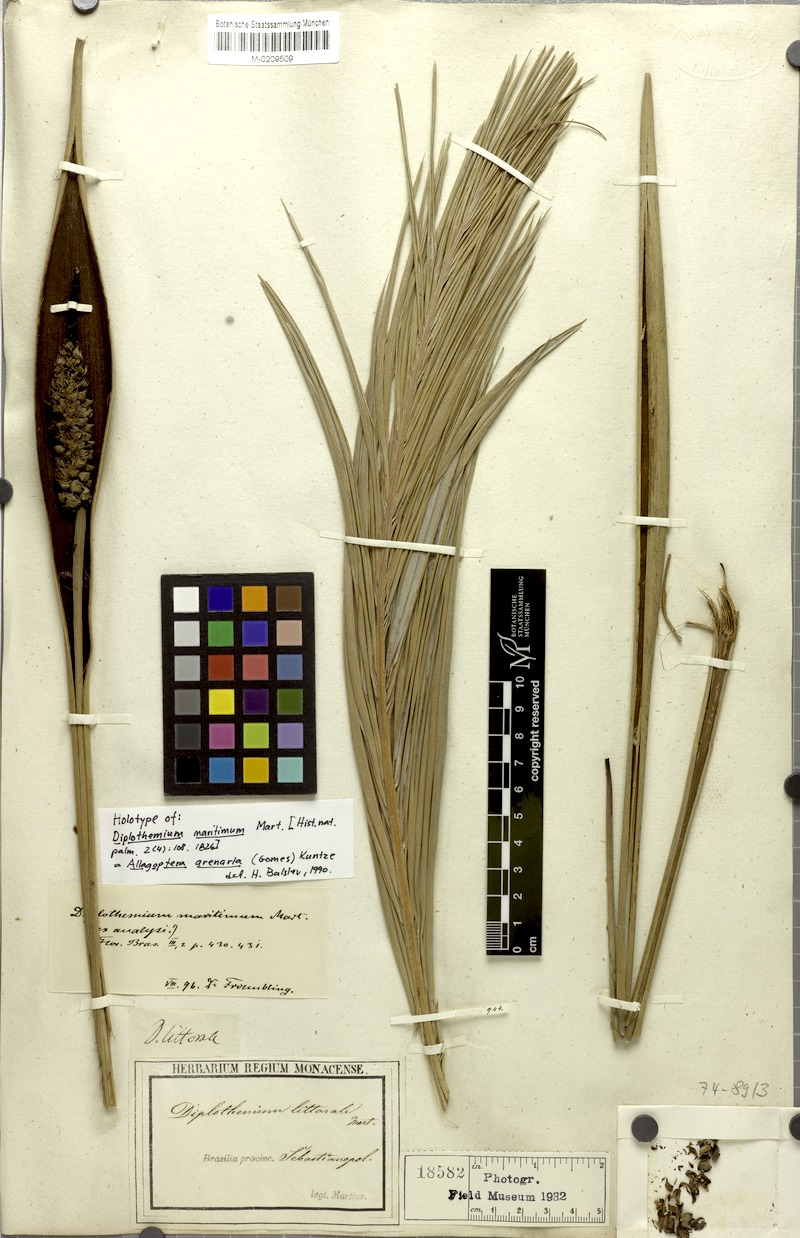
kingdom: Plantae
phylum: Tracheophyta
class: Liliopsida
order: Arecales
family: Arecaceae
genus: Allagoptera
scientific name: Allagoptera arenaria
